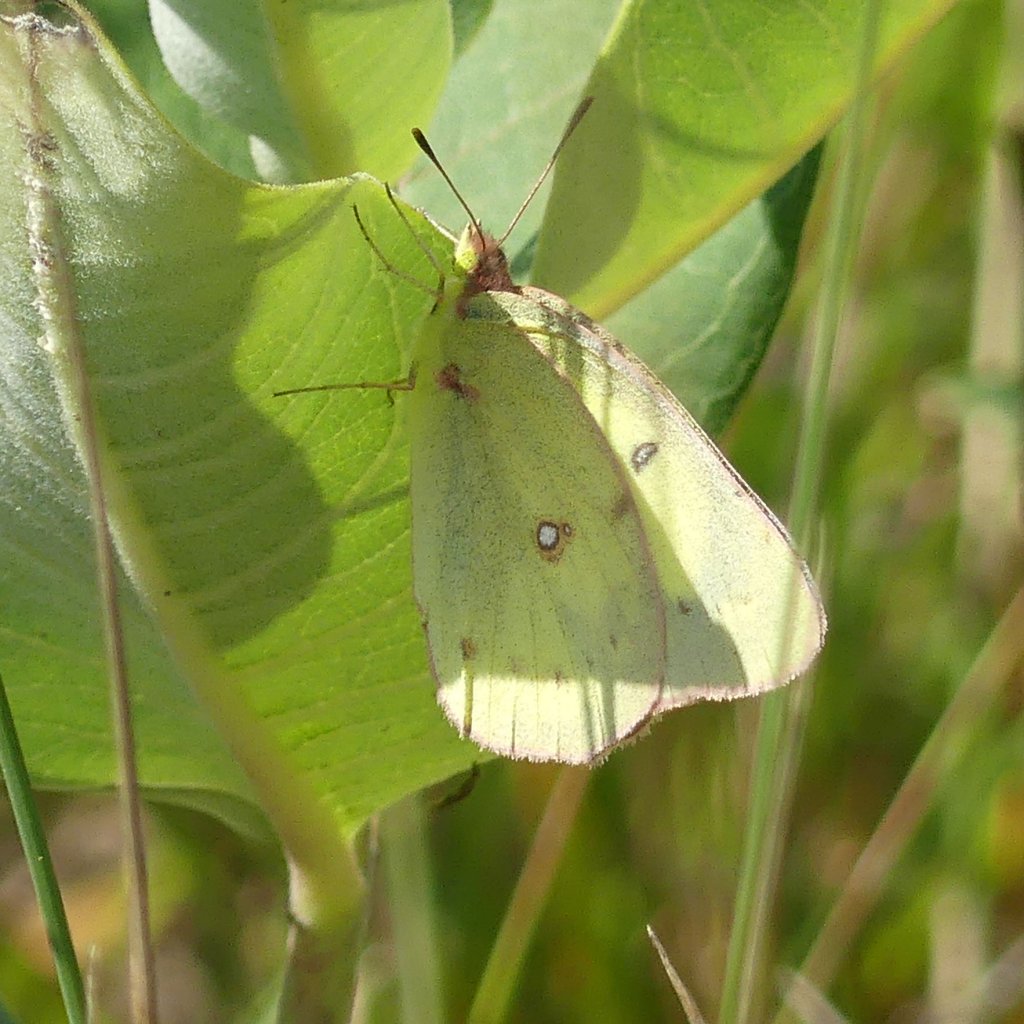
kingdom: Animalia
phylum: Arthropoda
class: Insecta
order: Lepidoptera
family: Pieridae
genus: Colias
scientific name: Colias philodice
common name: Clouded Sulphur
